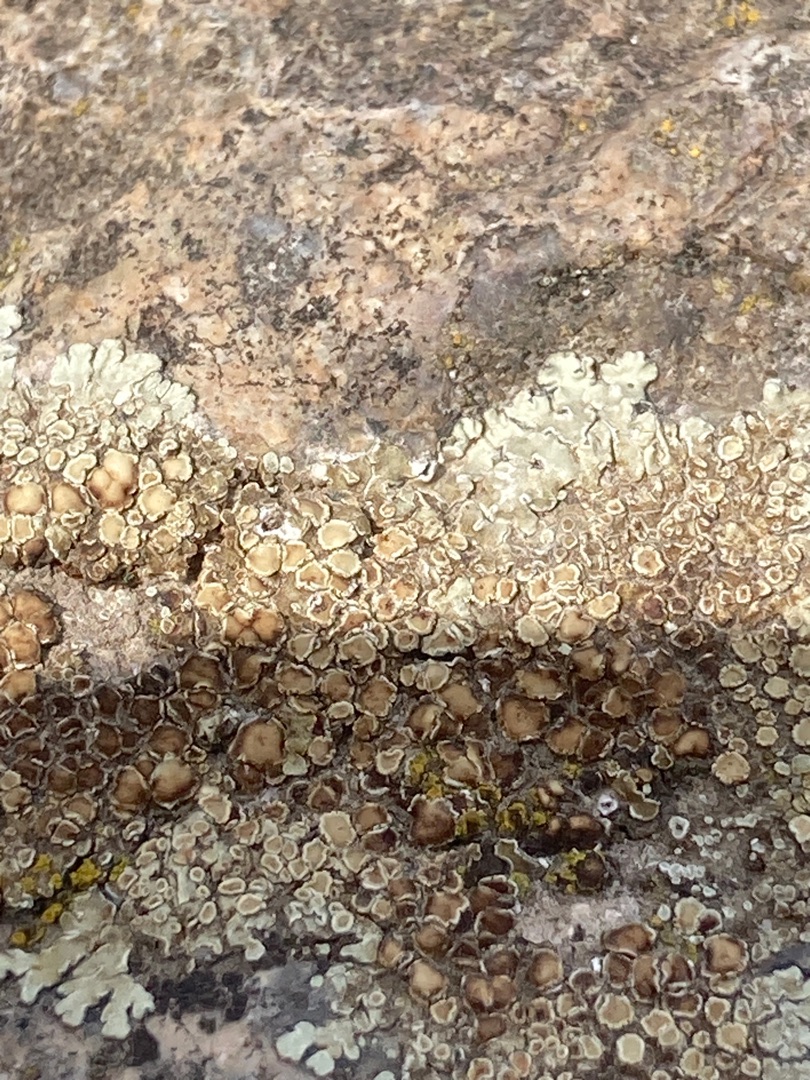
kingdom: Fungi
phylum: Ascomycota
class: Lecanoromycetes
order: Lecanorales
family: Lecanoraceae
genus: Protoparmeliopsis
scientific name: Protoparmeliopsis muralis
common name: Randfliget kantskivelav
